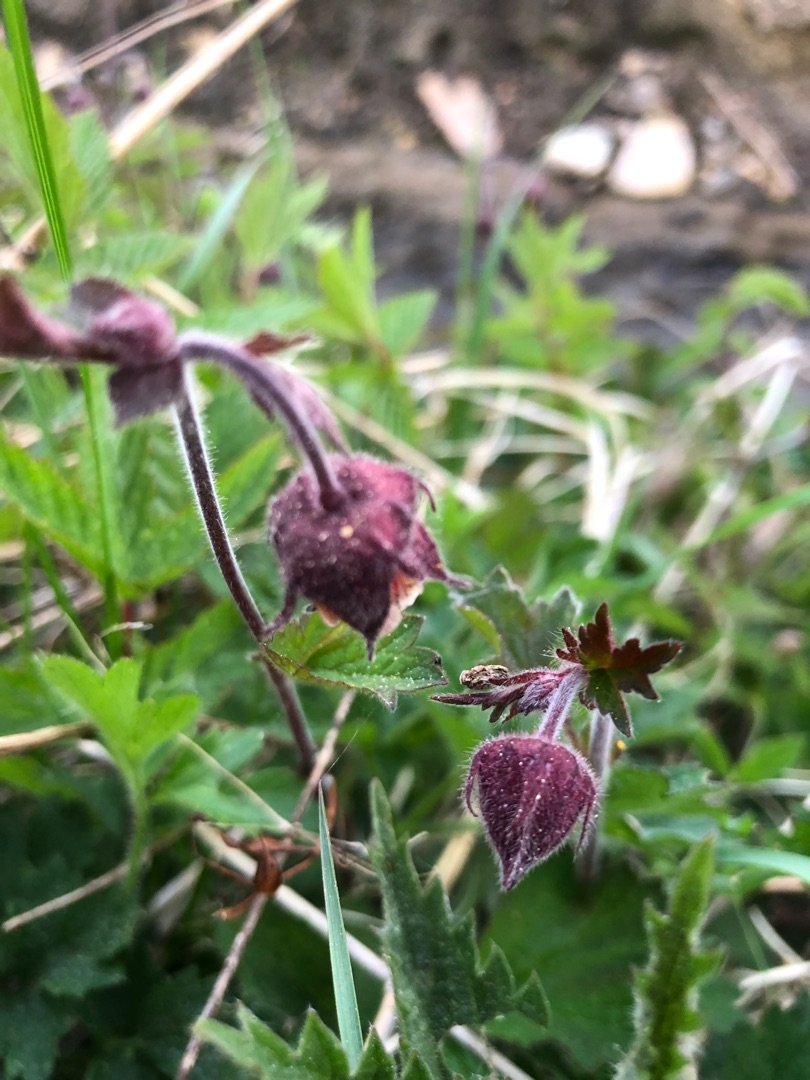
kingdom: Plantae
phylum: Tracheophyta
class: Magnoliopsida
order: Rosales
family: Rosaceae
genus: Geum
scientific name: Geum rivale
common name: Eng-nellikerod
